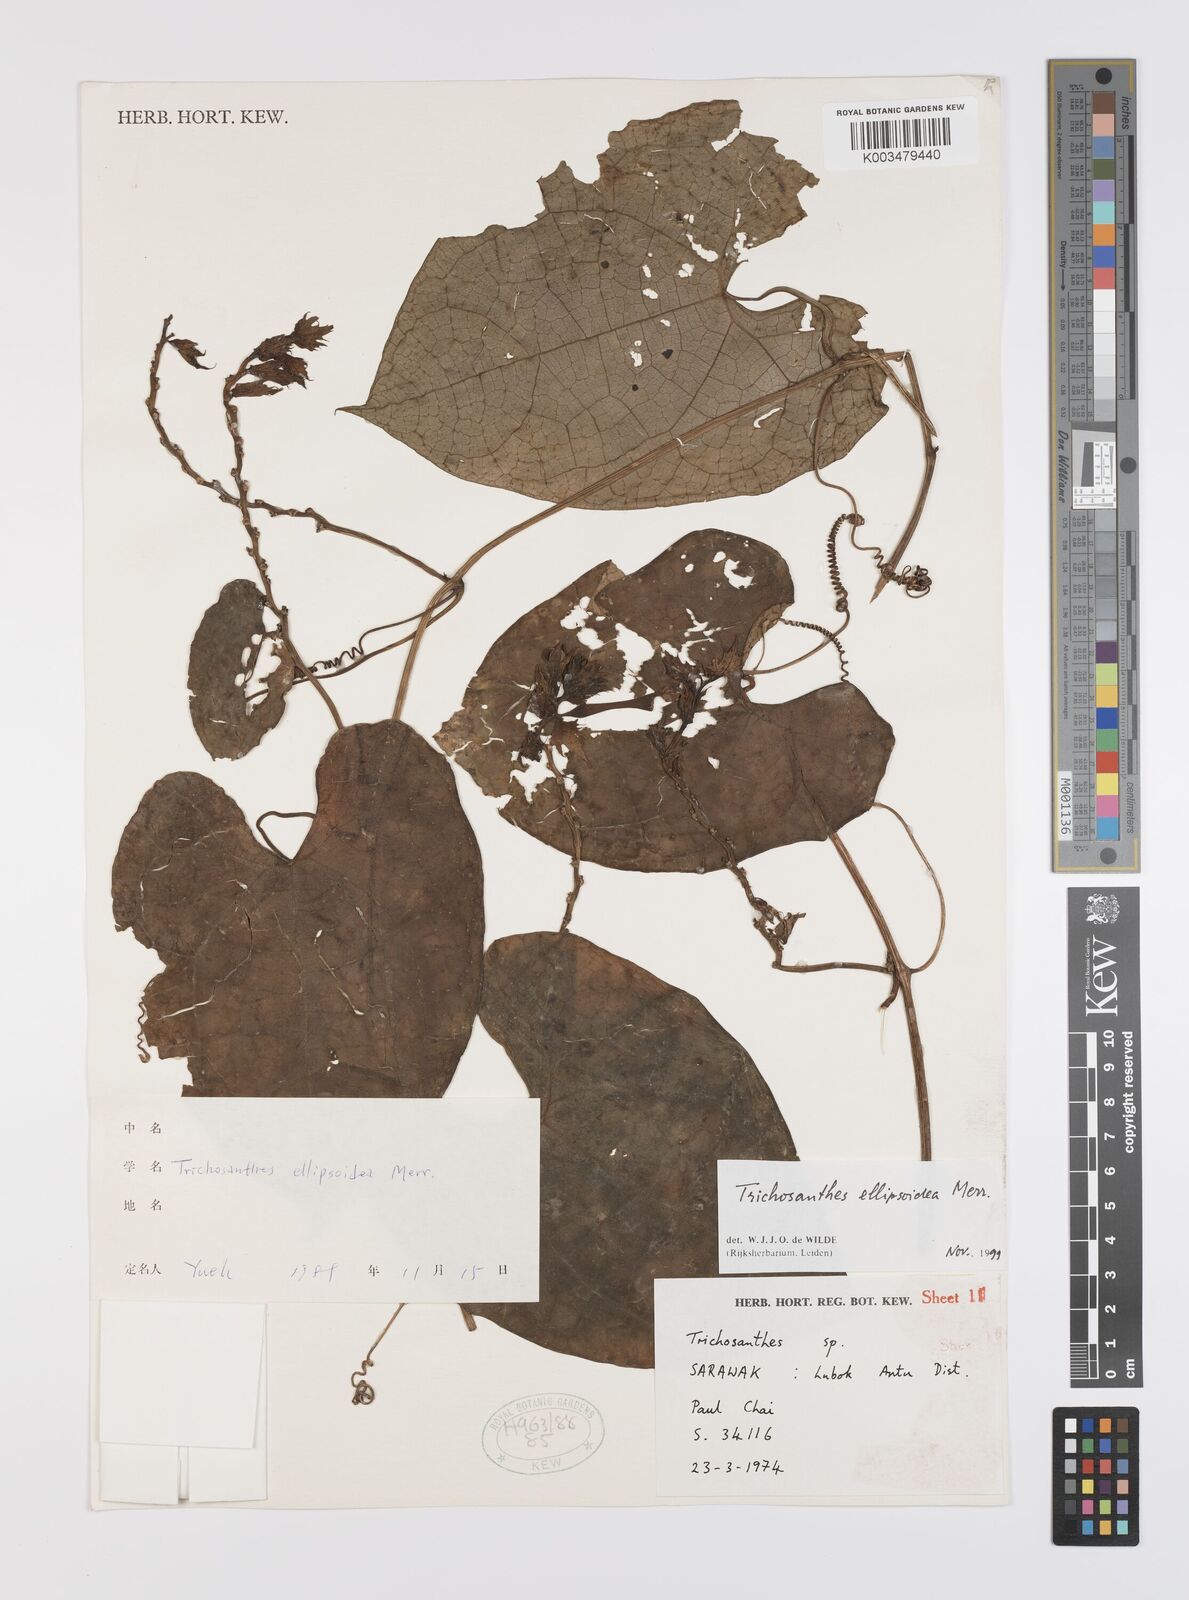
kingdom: Plantae
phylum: Tracheophyta
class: Magnoliopsida
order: Cucurbitales
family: Cucurbitaceae
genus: Trichosanthes
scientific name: Trichosanthes ellipsoidea
